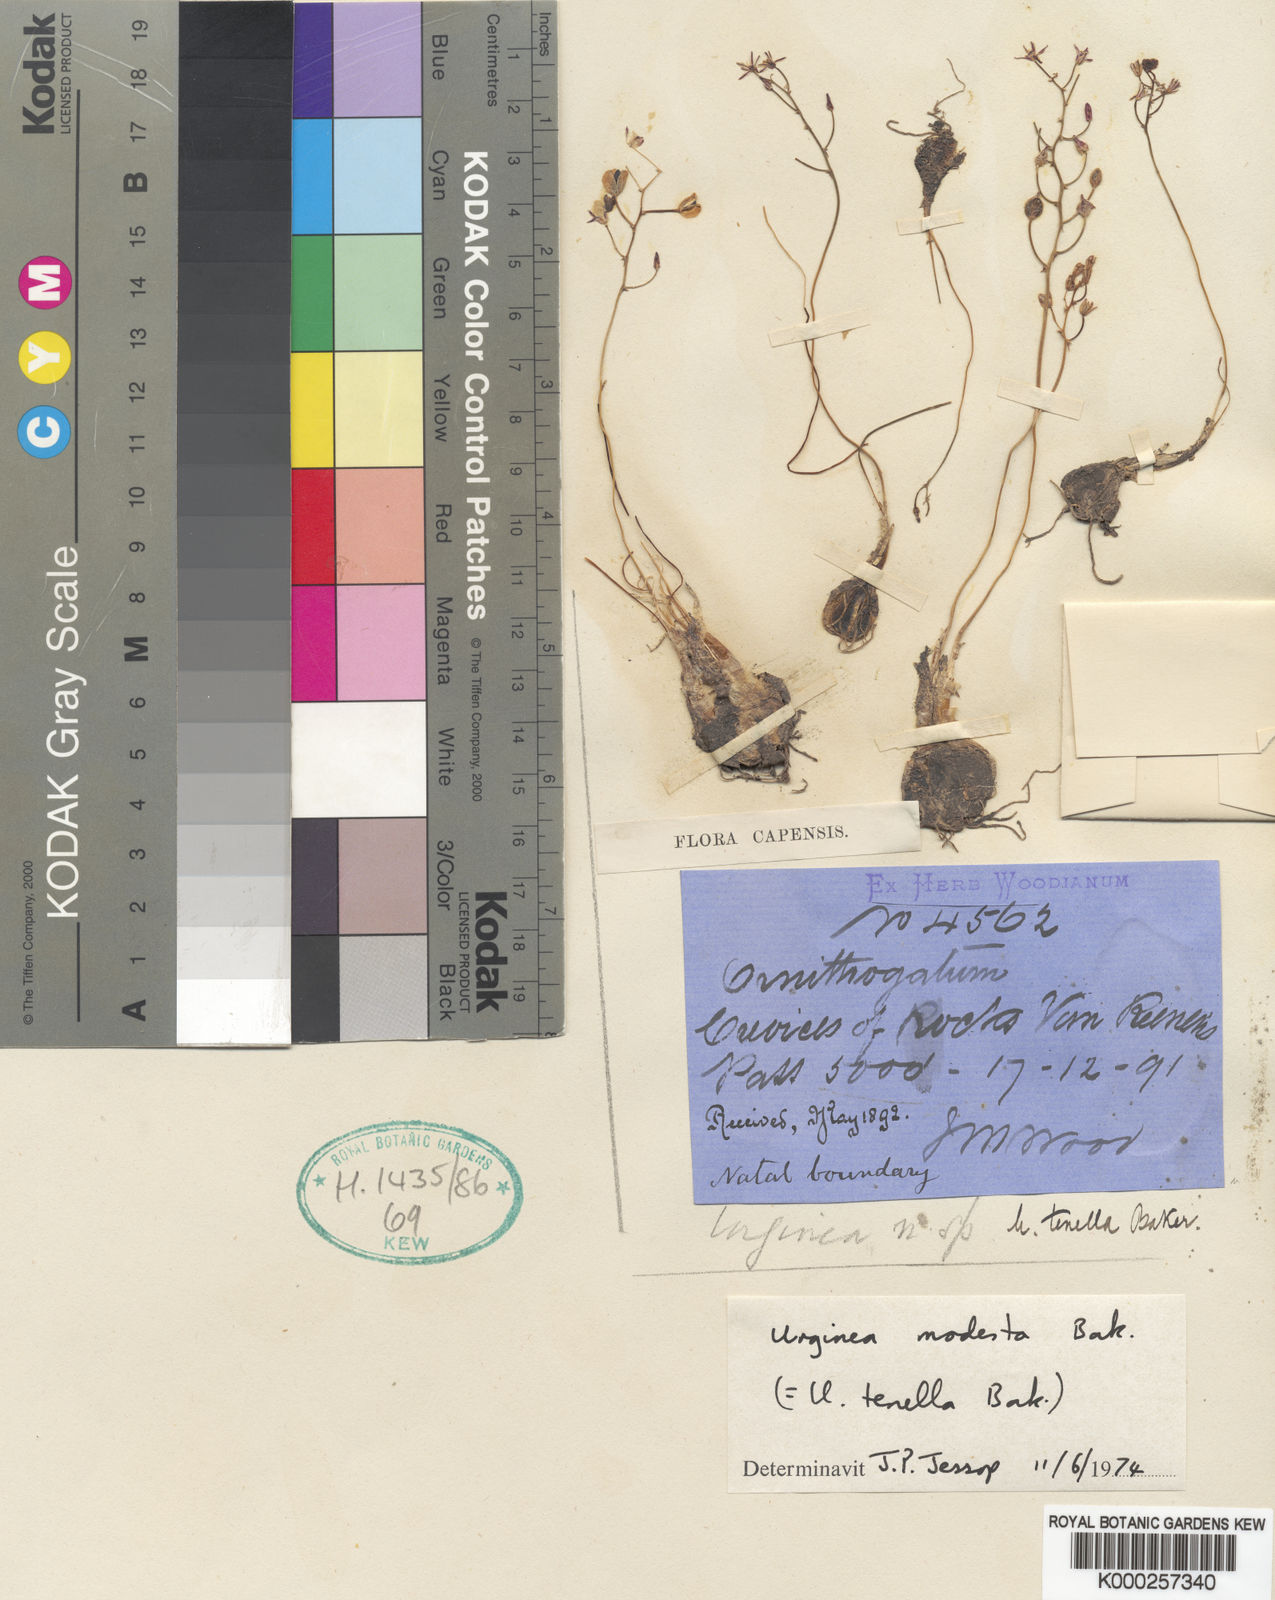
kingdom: Plantae
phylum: Tracheophyta
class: Liliopsida
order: Asparagales
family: Asparagaceae
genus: Drimia
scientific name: Drimia modesta
